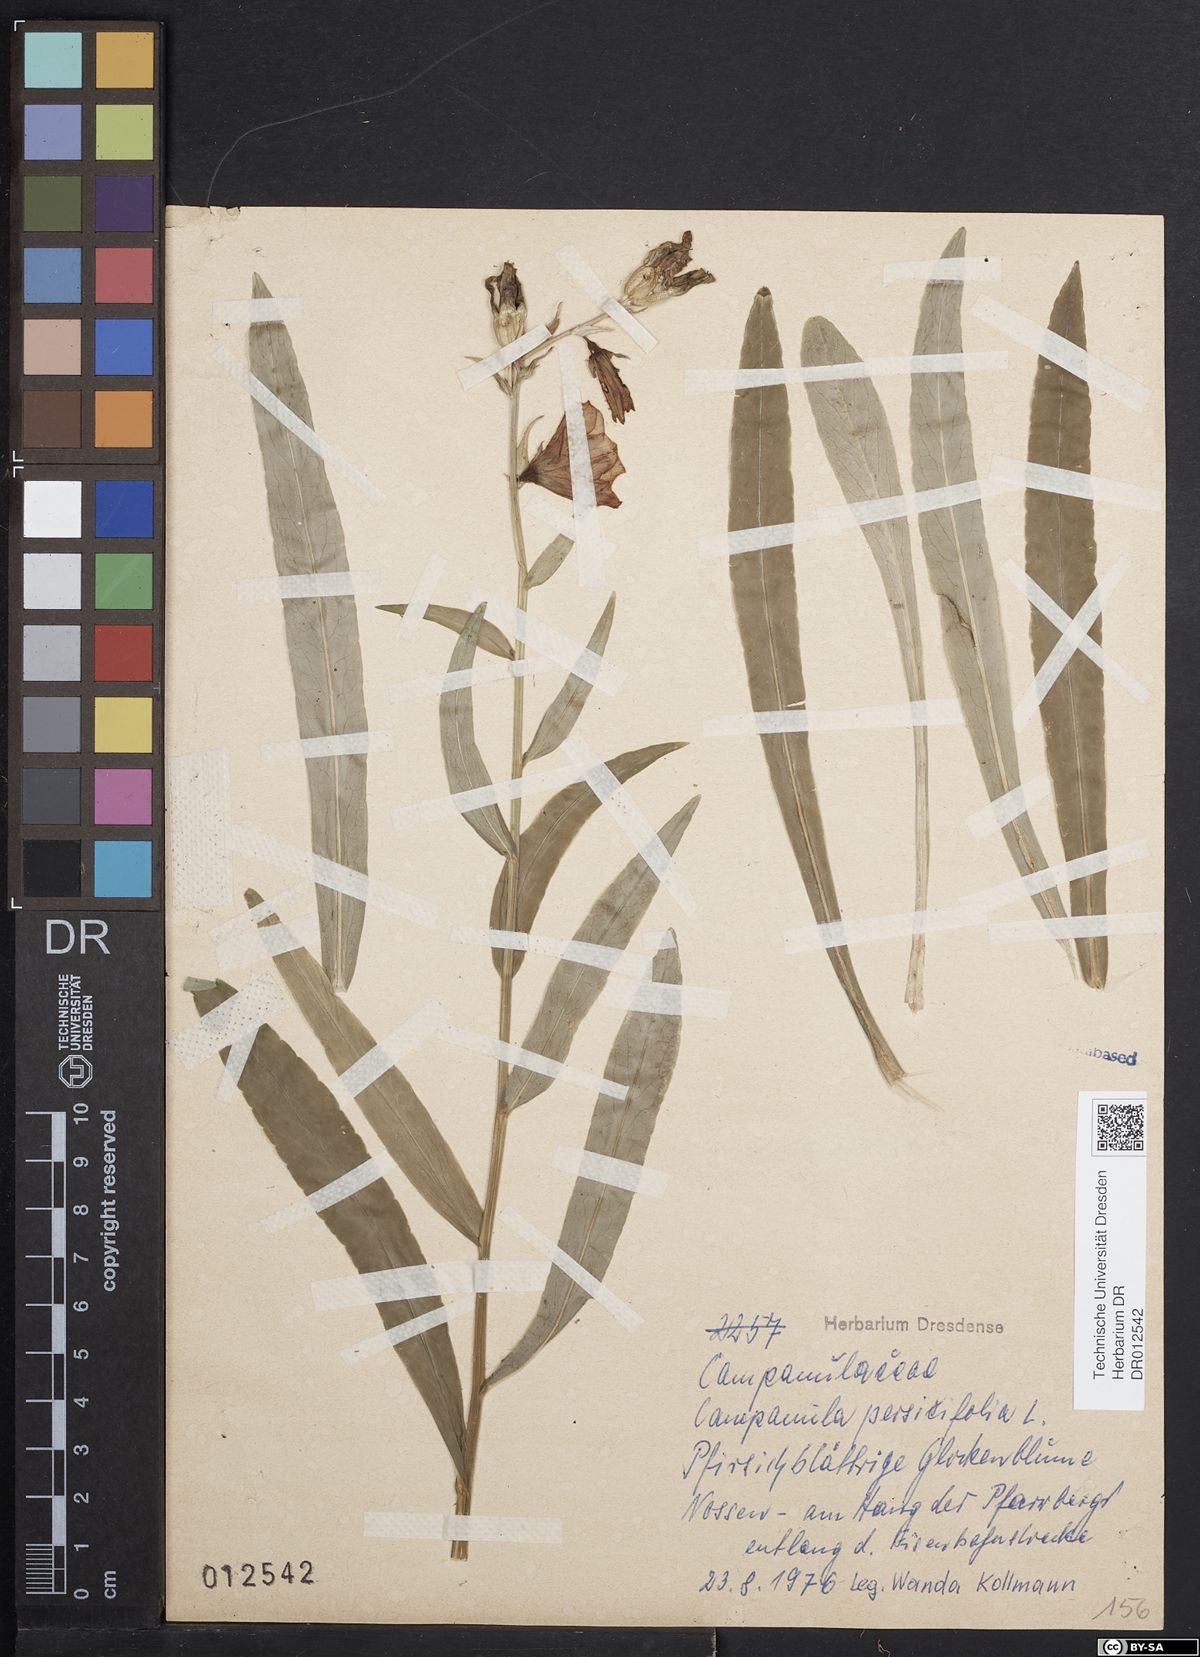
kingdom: Plantae
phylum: Tracheophyta
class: Magnoliopsida
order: Asterales
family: Campanulaceae
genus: Campanula
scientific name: Campanula persicifolia
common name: Peach-leaved bellflower
